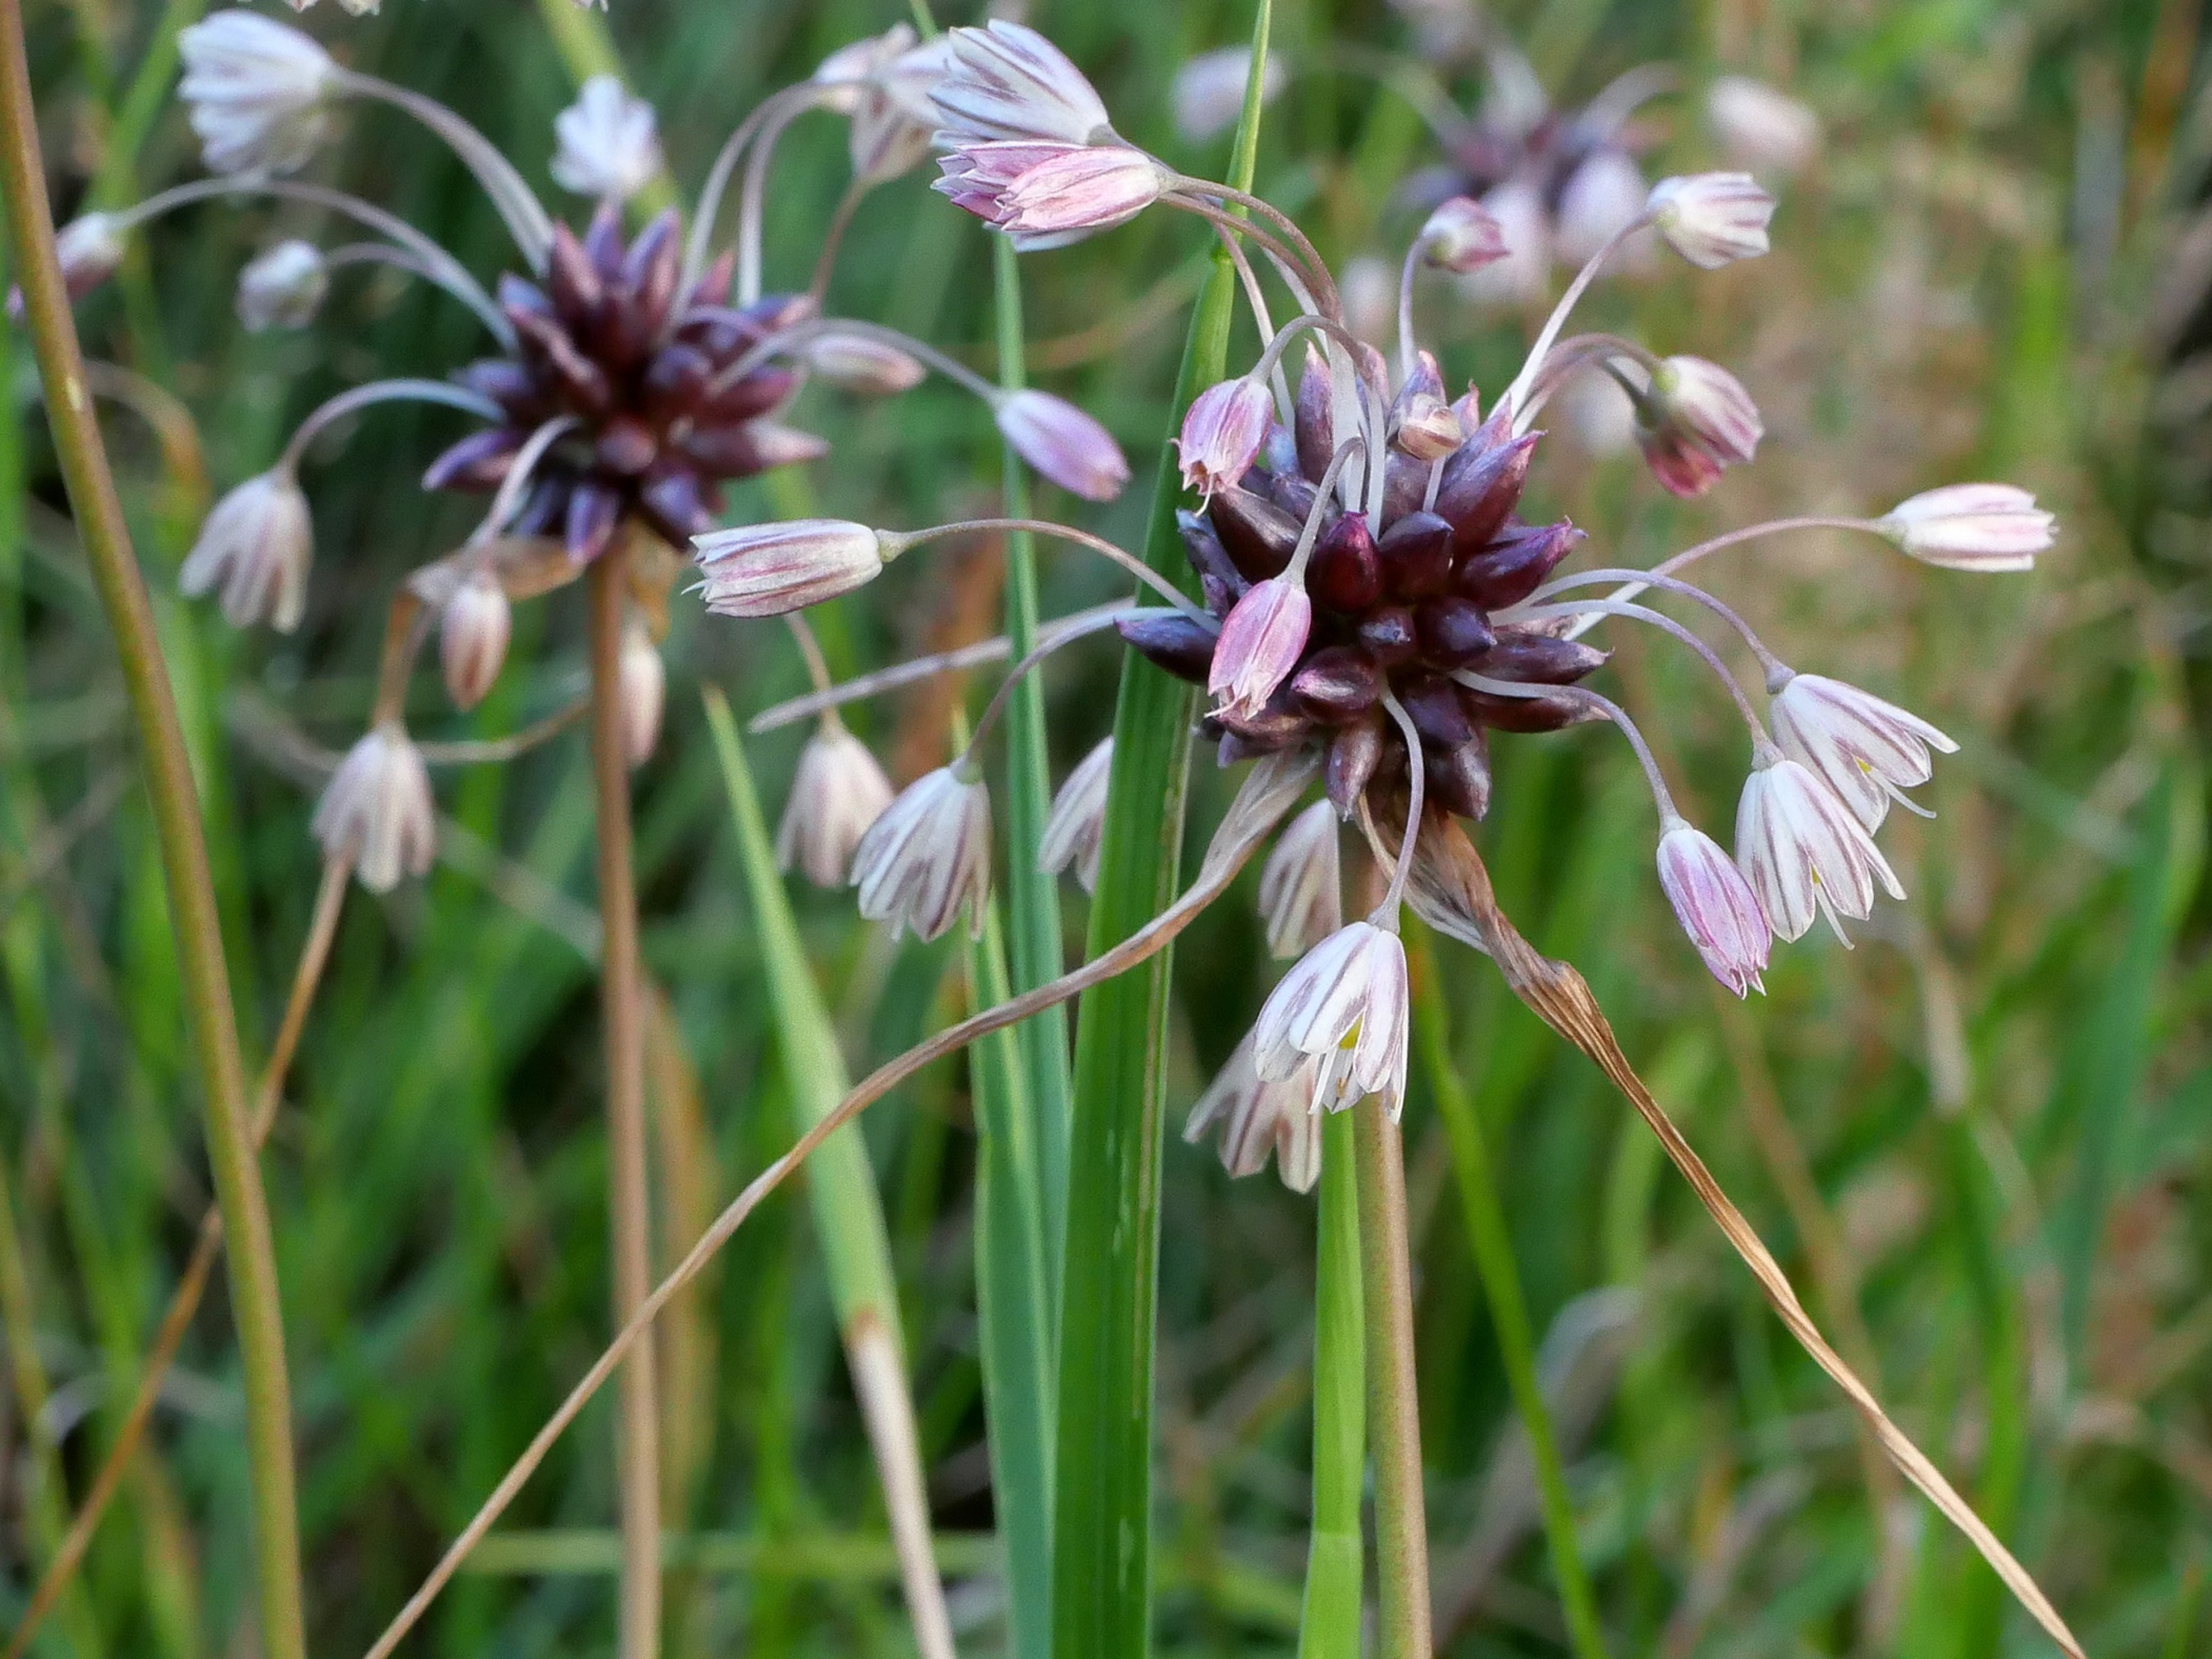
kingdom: Plantae
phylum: Tracheophyta
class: Liliopsida
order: Asparagales
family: Amaryllidaceae
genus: Allium
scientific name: Allium oleraceum
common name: Vild løg
